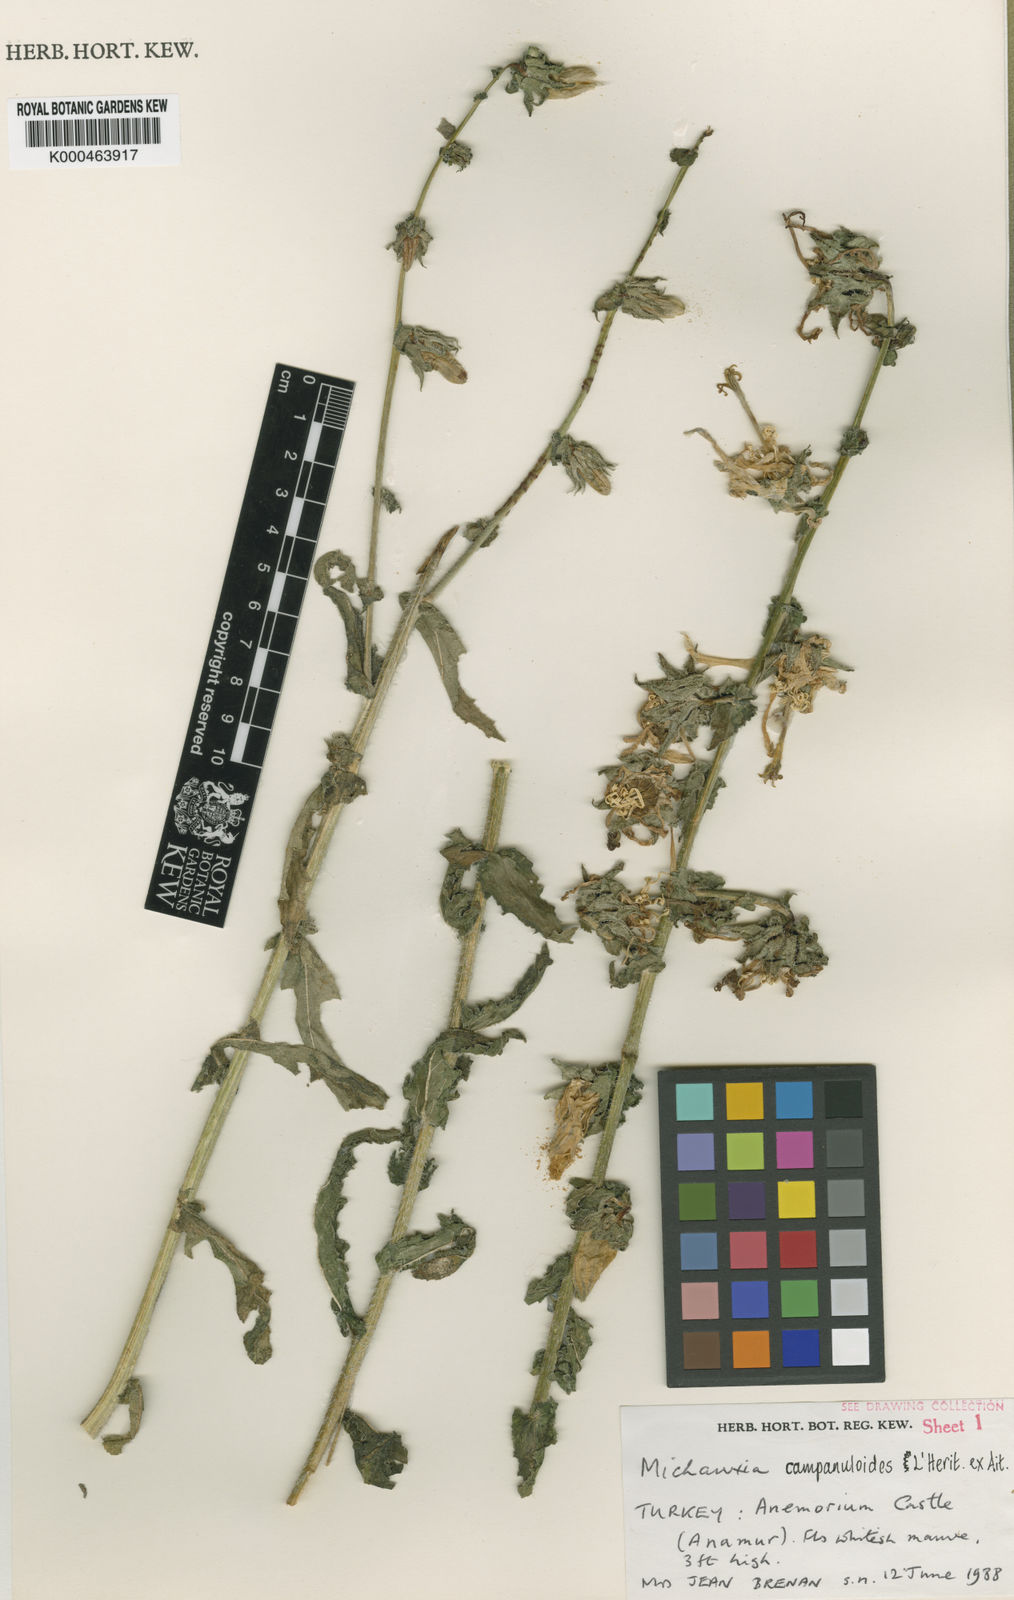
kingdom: Plantae
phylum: Tracheophyta
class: Magnoliopsida
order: Asterales
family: Campanulaceae
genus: Michauxia
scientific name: Michauxia
